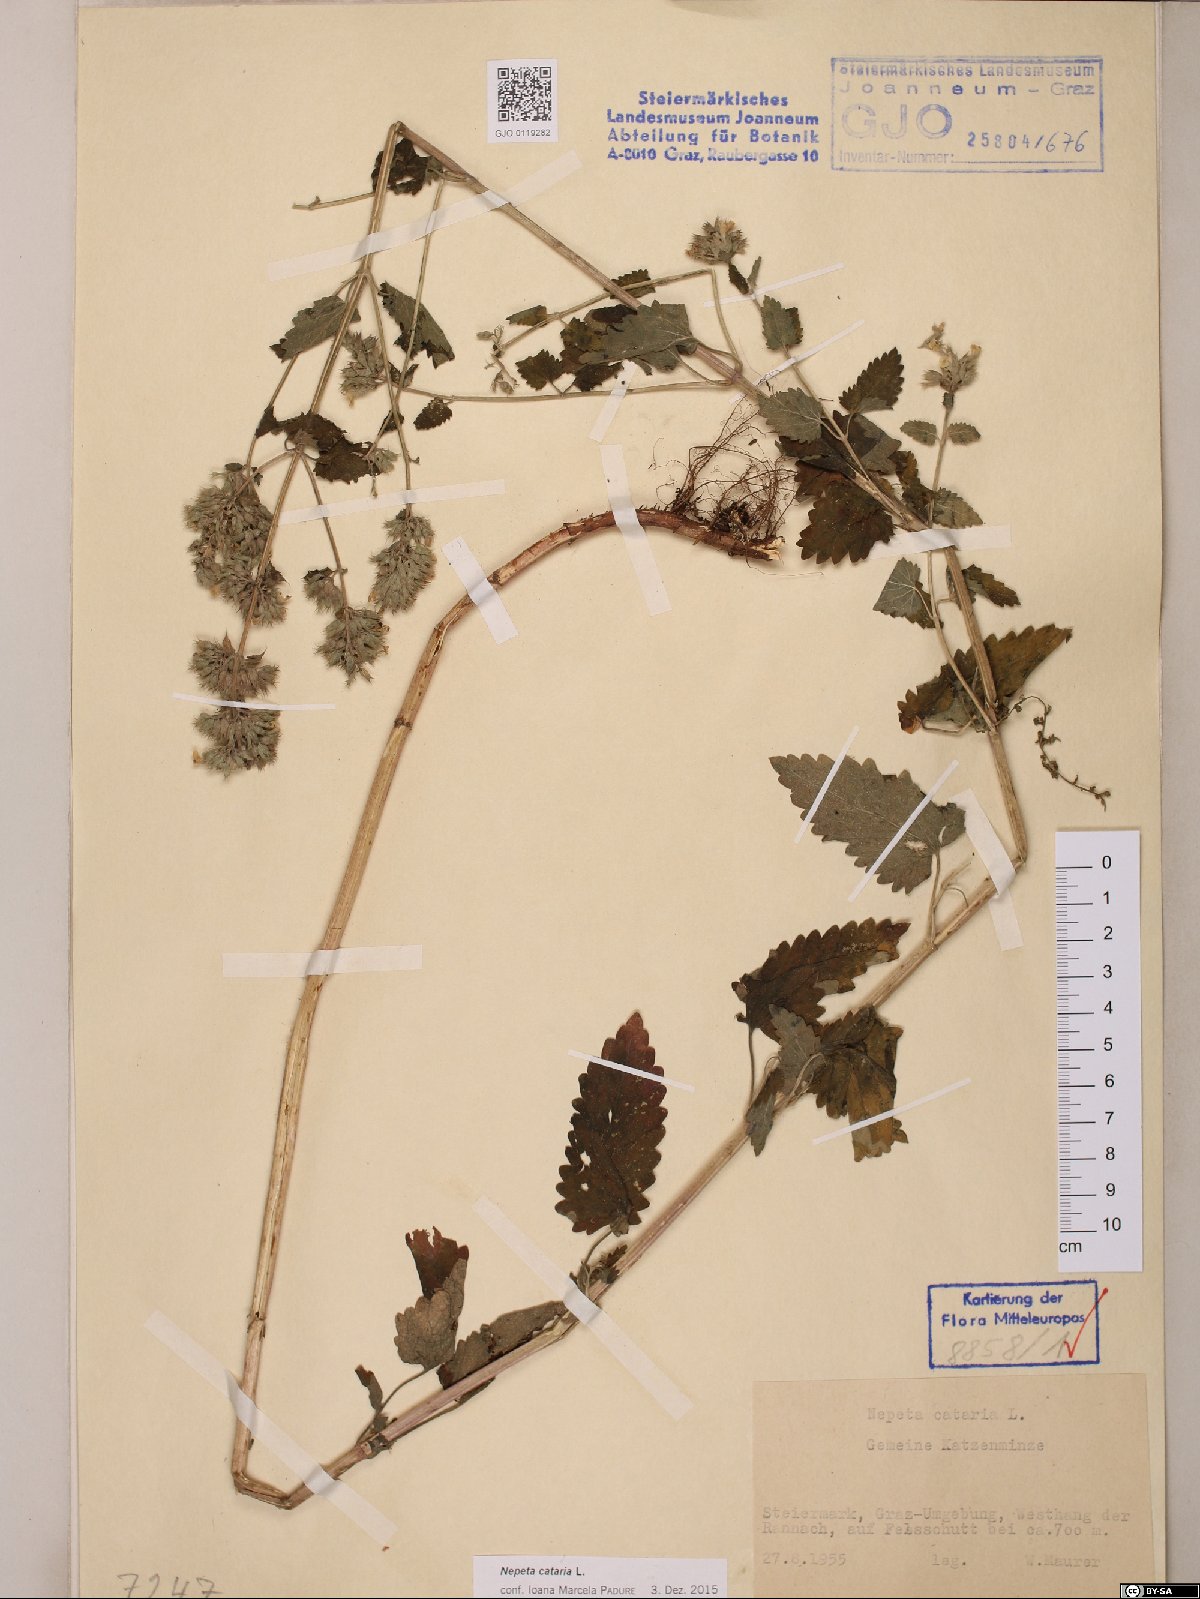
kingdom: Plantae
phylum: Tracheophyta
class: Magnoliopsida
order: Lamiales
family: Lamiaceae
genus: Nepeta
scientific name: Nepeta cataria
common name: Catnip
